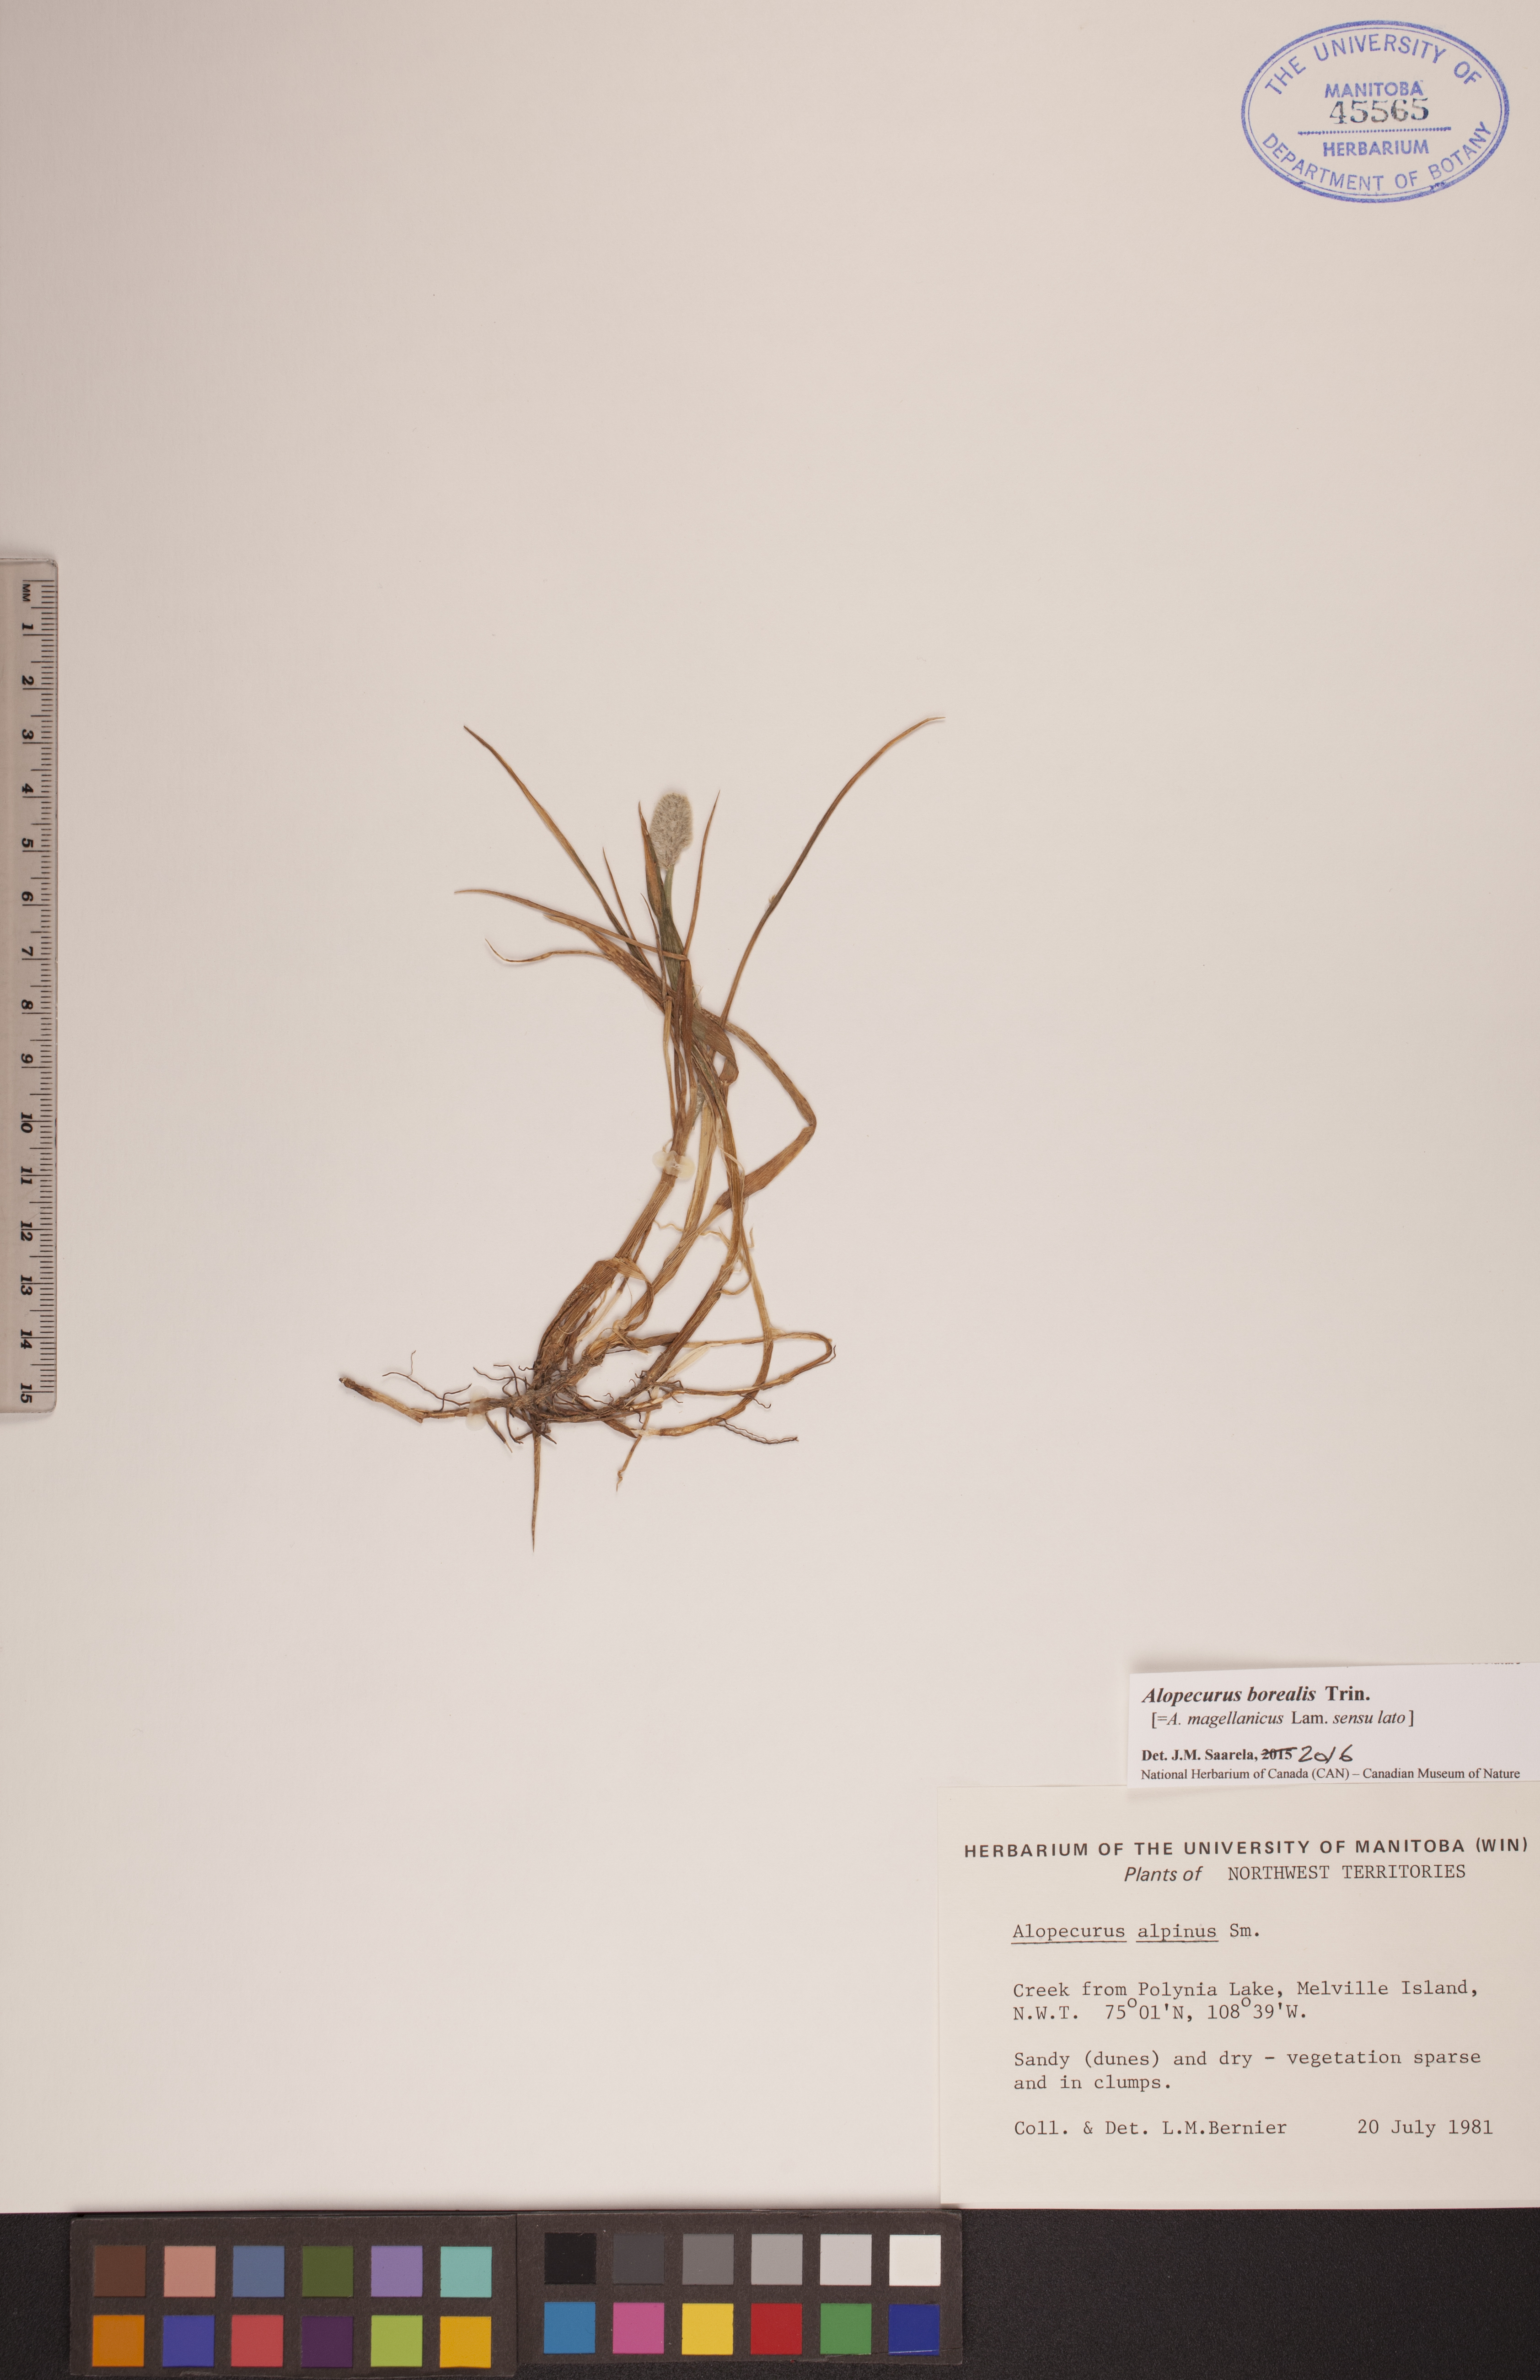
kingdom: Plantae
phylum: Tracheophyta
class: Liliopsida
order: Poales
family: Poaceae
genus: Alopecurus
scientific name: Alopecurus magellanicus
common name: Alpine foxtail
